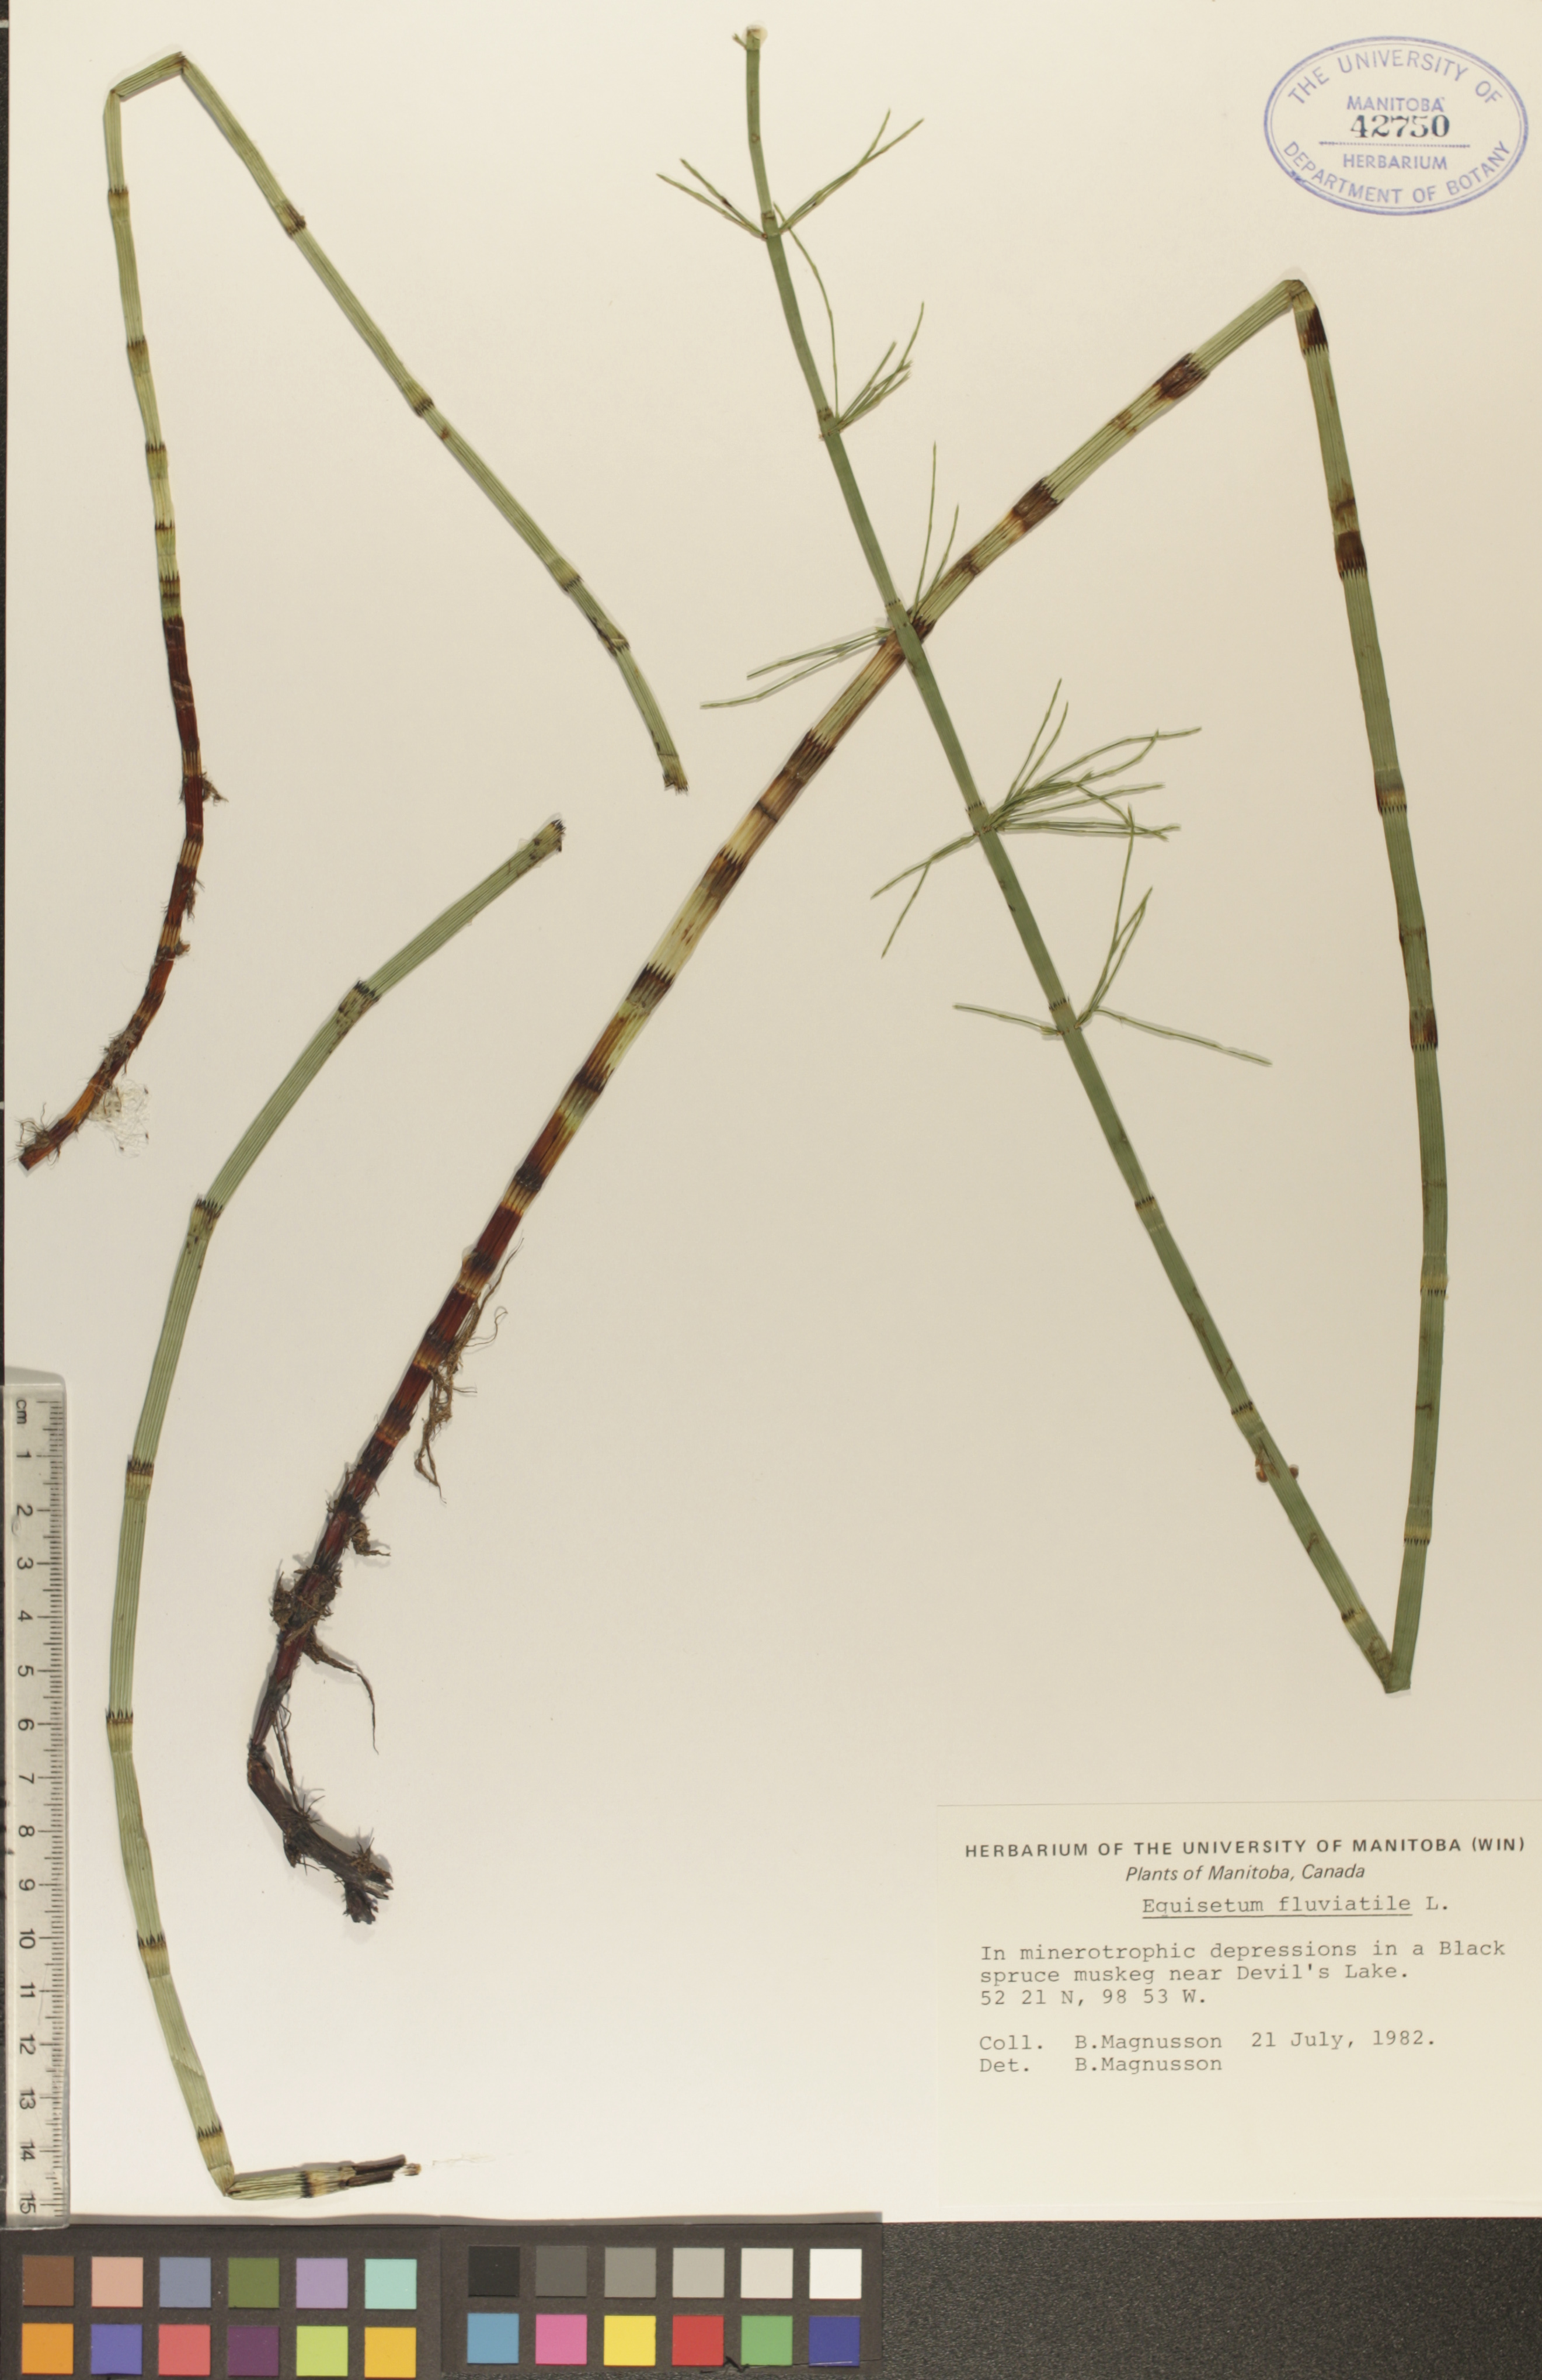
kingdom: Plantae
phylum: Tracheophyta
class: Polypodiopsida
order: Equisetales
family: Equisetaceae
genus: Equisetum
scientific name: Equisetum fluviatile
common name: Water horsetail
